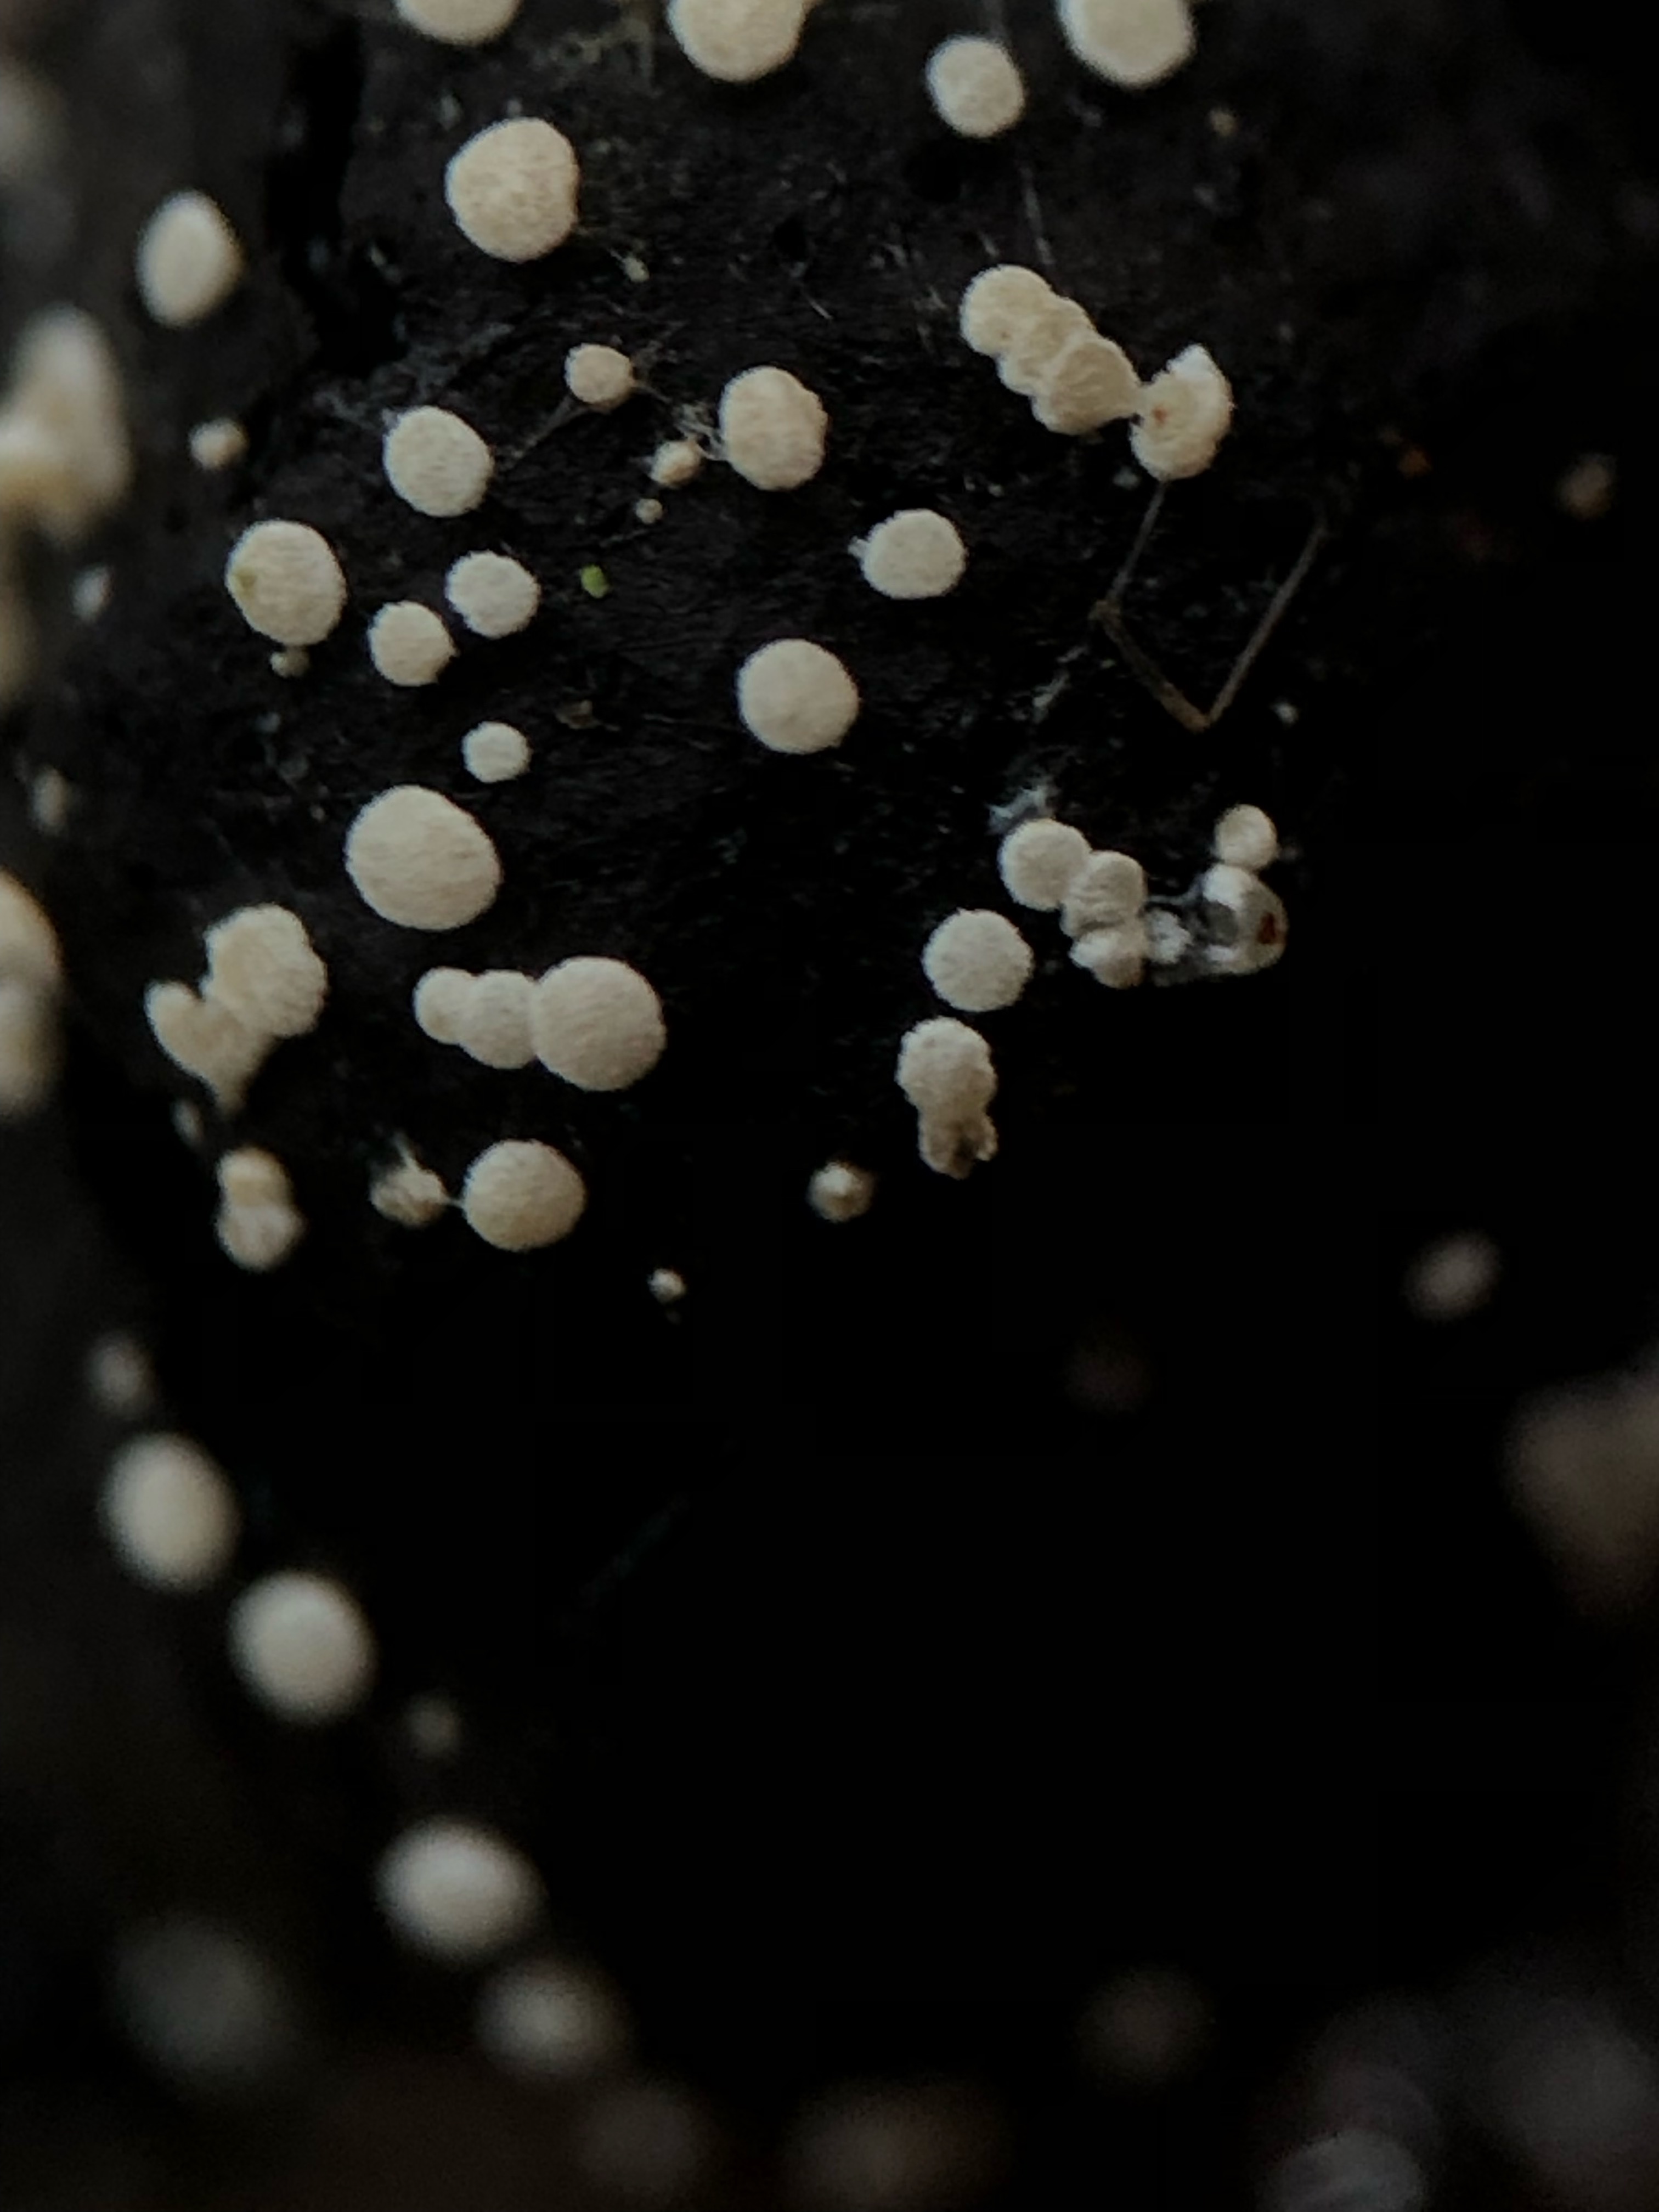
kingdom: Fungi
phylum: Ascomycota
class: Leotiomycetes
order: Helotiales
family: Hyaloscyphaceae
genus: Polydesmia
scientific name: Polydesmia pruinosa
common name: dunskive
